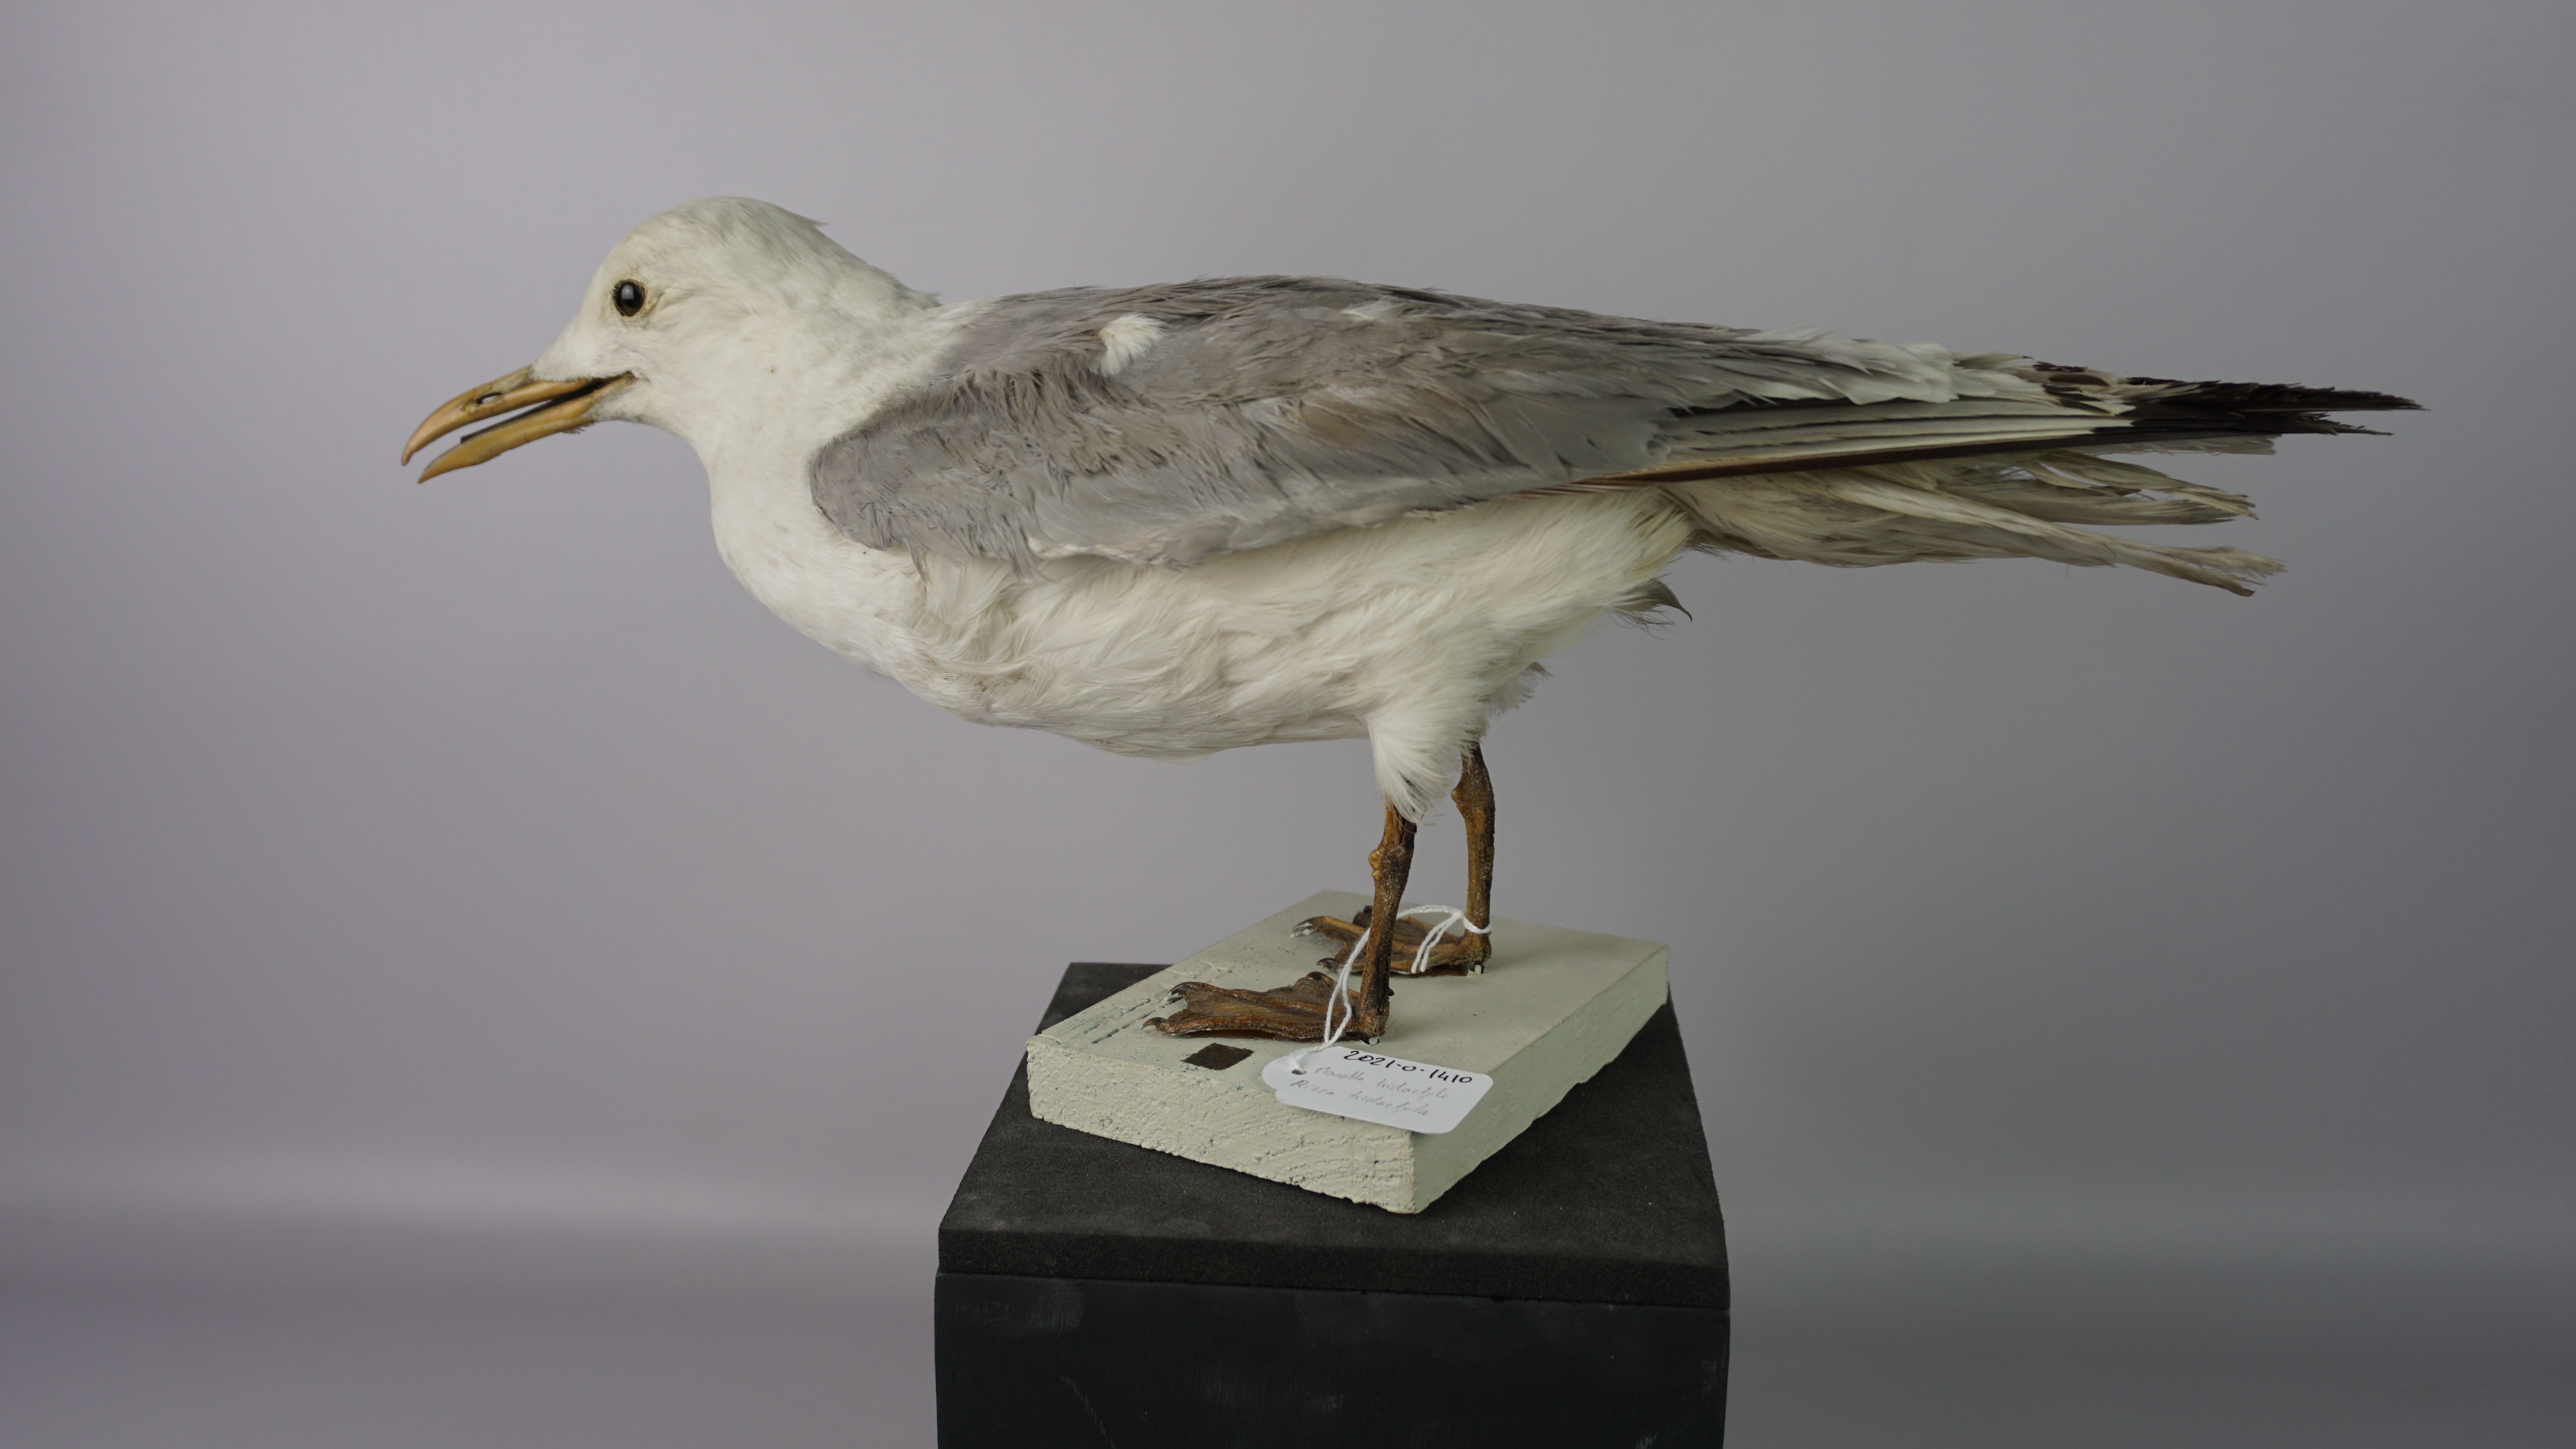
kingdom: Animalia
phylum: Chordata
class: Aves
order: Charadriiformes
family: Laridae
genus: Rissa
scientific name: Rissa tridactyla
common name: Black-legged kittiwake
